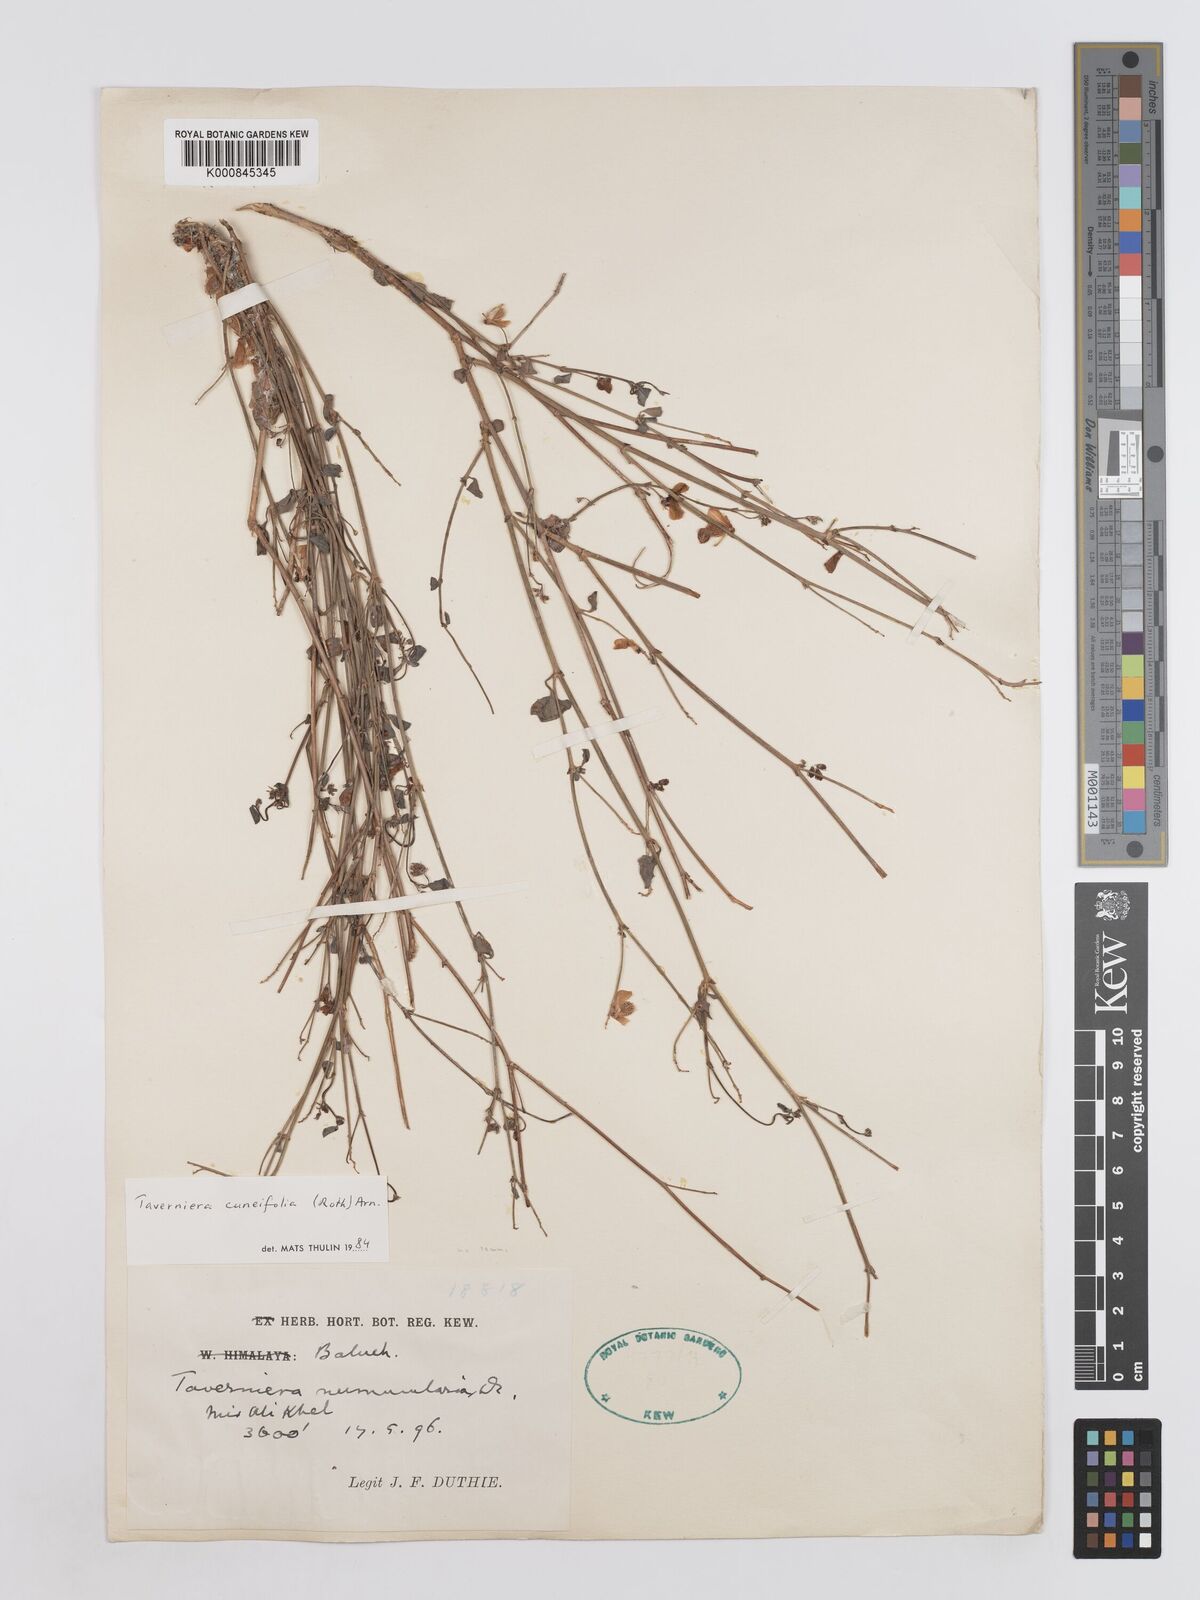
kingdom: Plantae
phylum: Tracheophyta
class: Magnoliopsida
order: Fabales
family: Fabaceae
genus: Taverniera
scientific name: Taverniera cuneifolia
